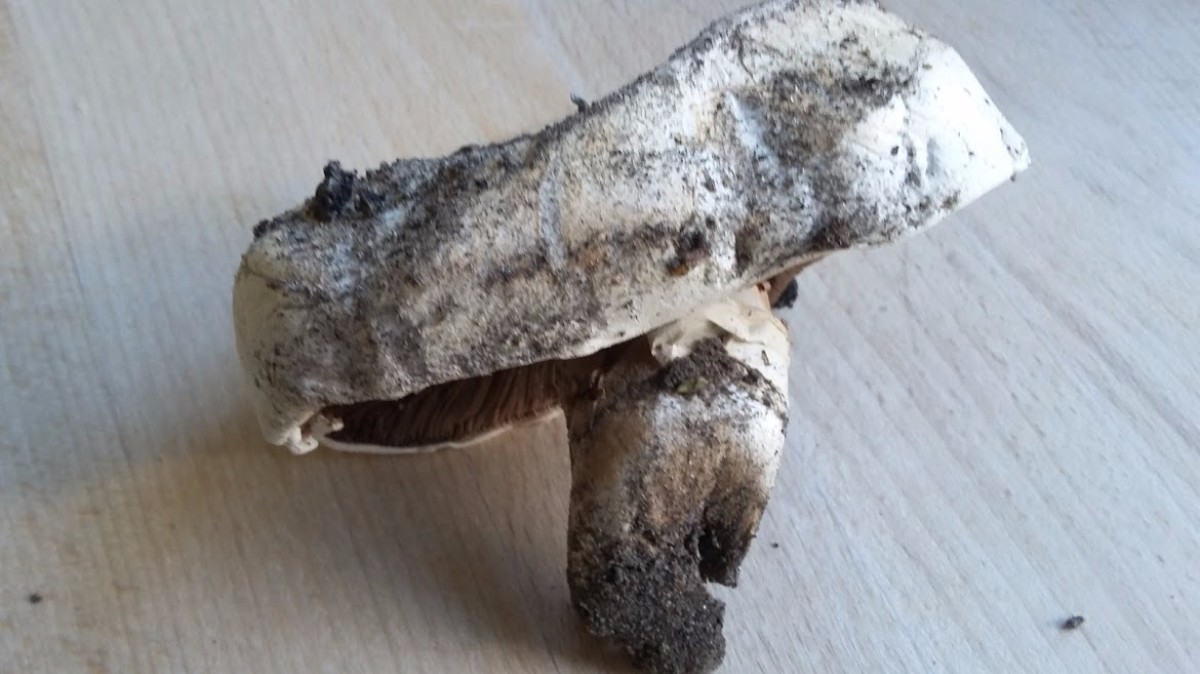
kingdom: Fungi
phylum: Basidiomycota
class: Agaricomycetes
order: Agaricales
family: Agaricaceae
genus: Agaricus
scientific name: Agaricus bitorquis
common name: vej-champignon
